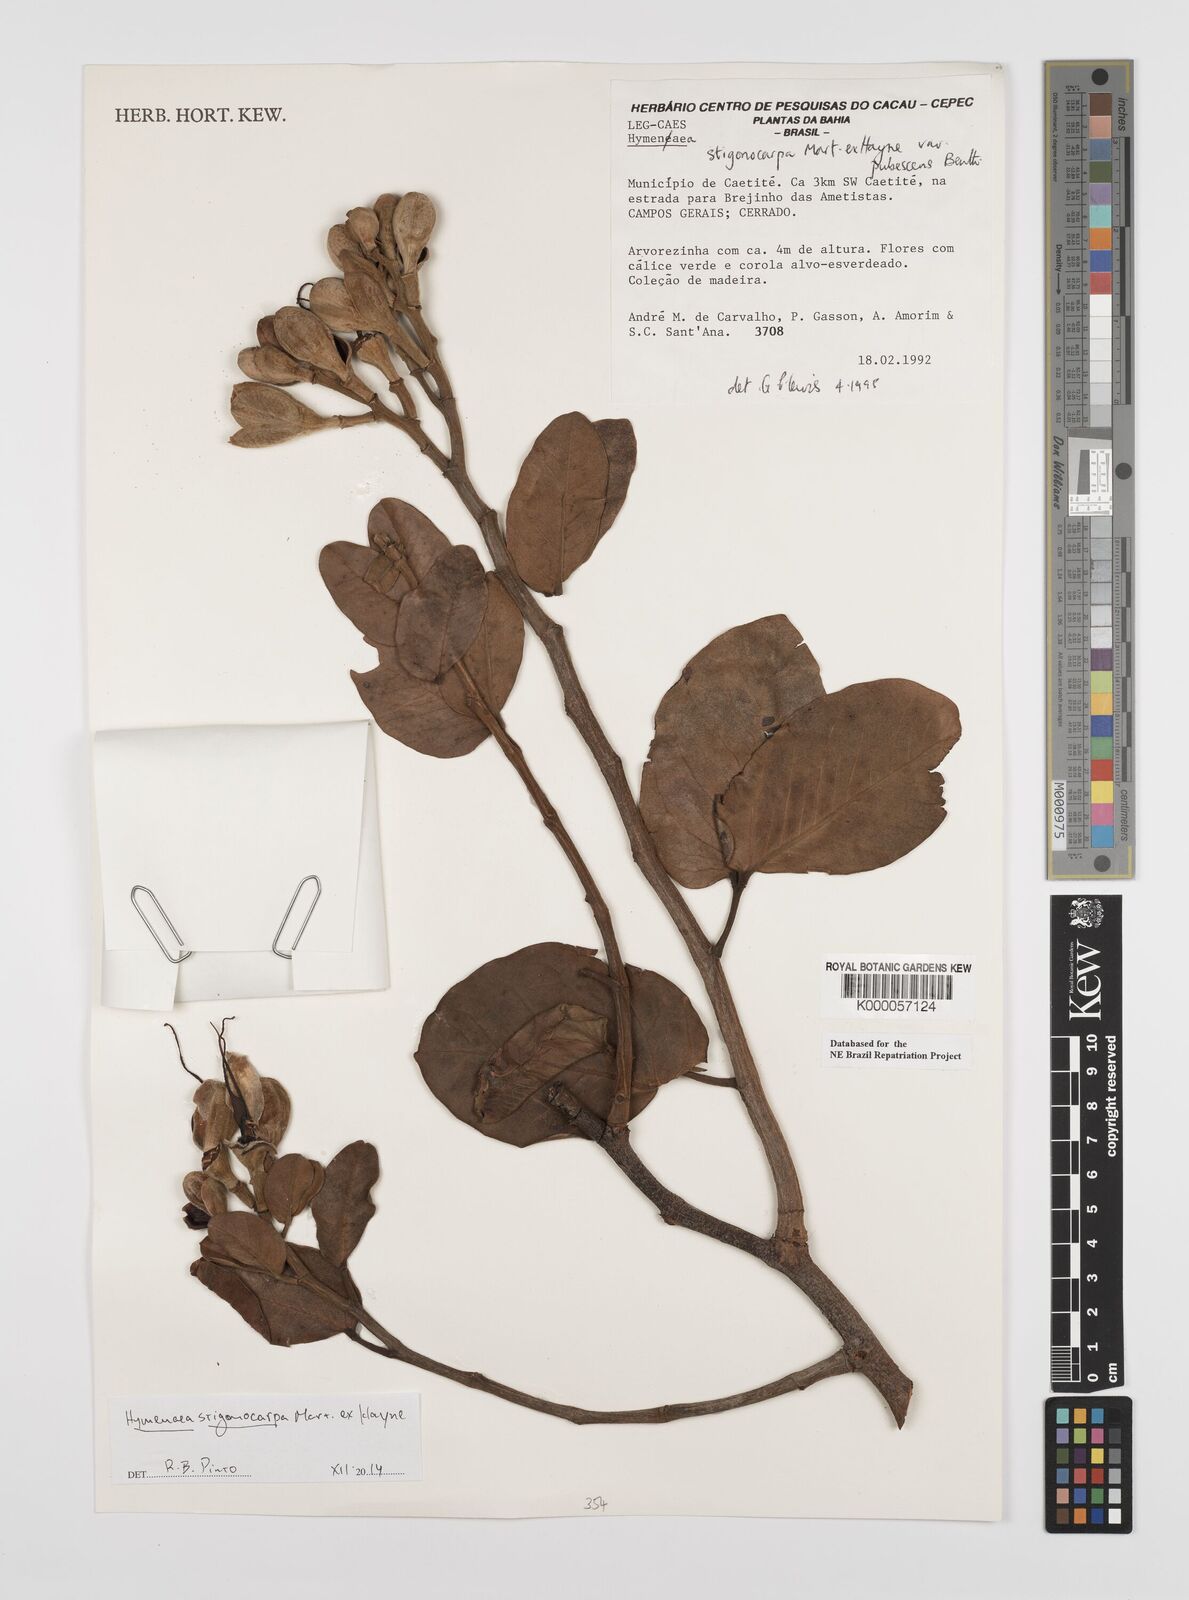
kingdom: Plantae
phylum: Tracheophyta
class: Magnoliopsida
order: Fabales
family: Fabaceae
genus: Hymenaea
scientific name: Hymenaea stigonocarpa
